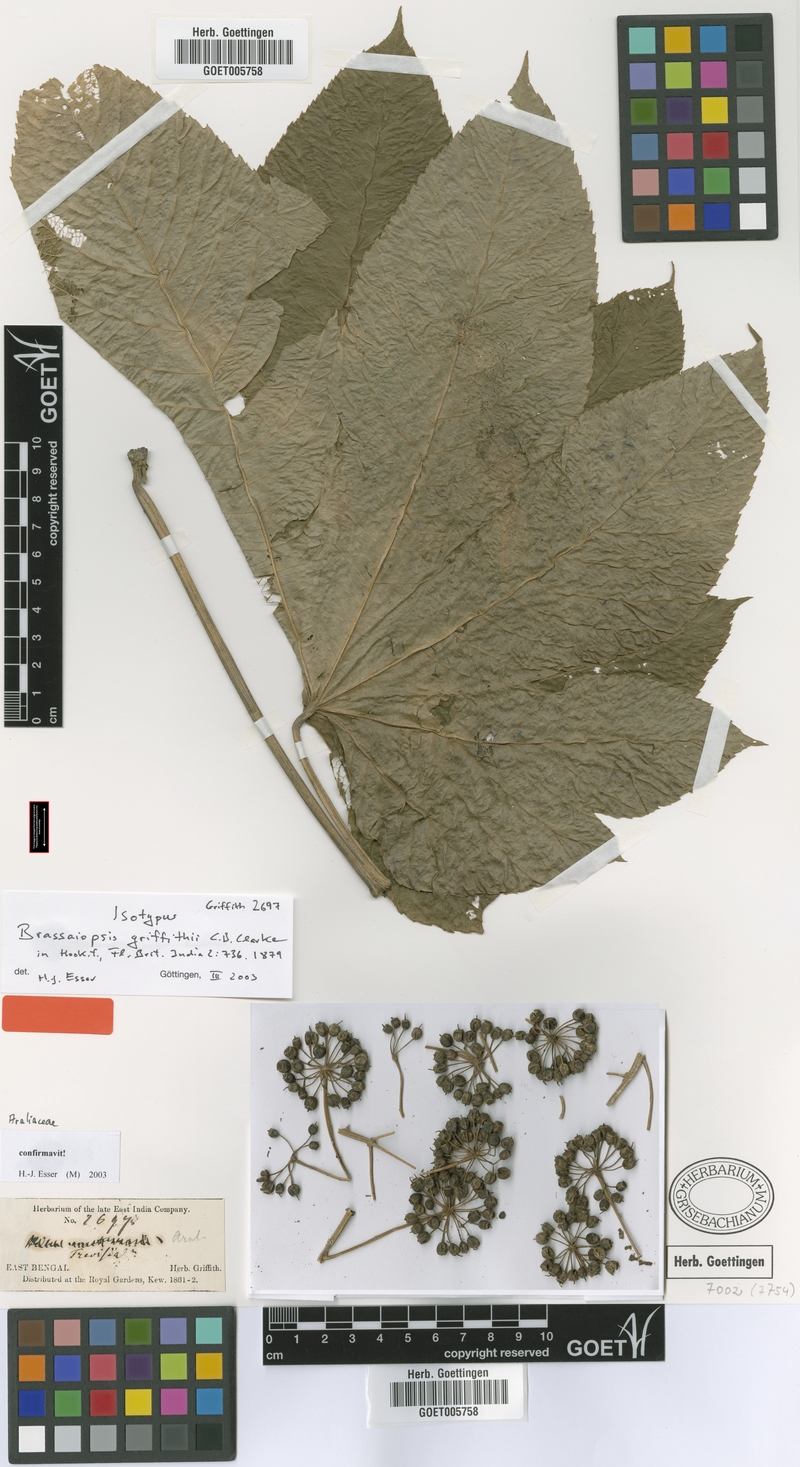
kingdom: Plantae
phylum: Tracheophyta
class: Magnoliopsida
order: Apiales
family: Araliaceae
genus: Brassaiopsis
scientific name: Brassaiopsis griffithii
